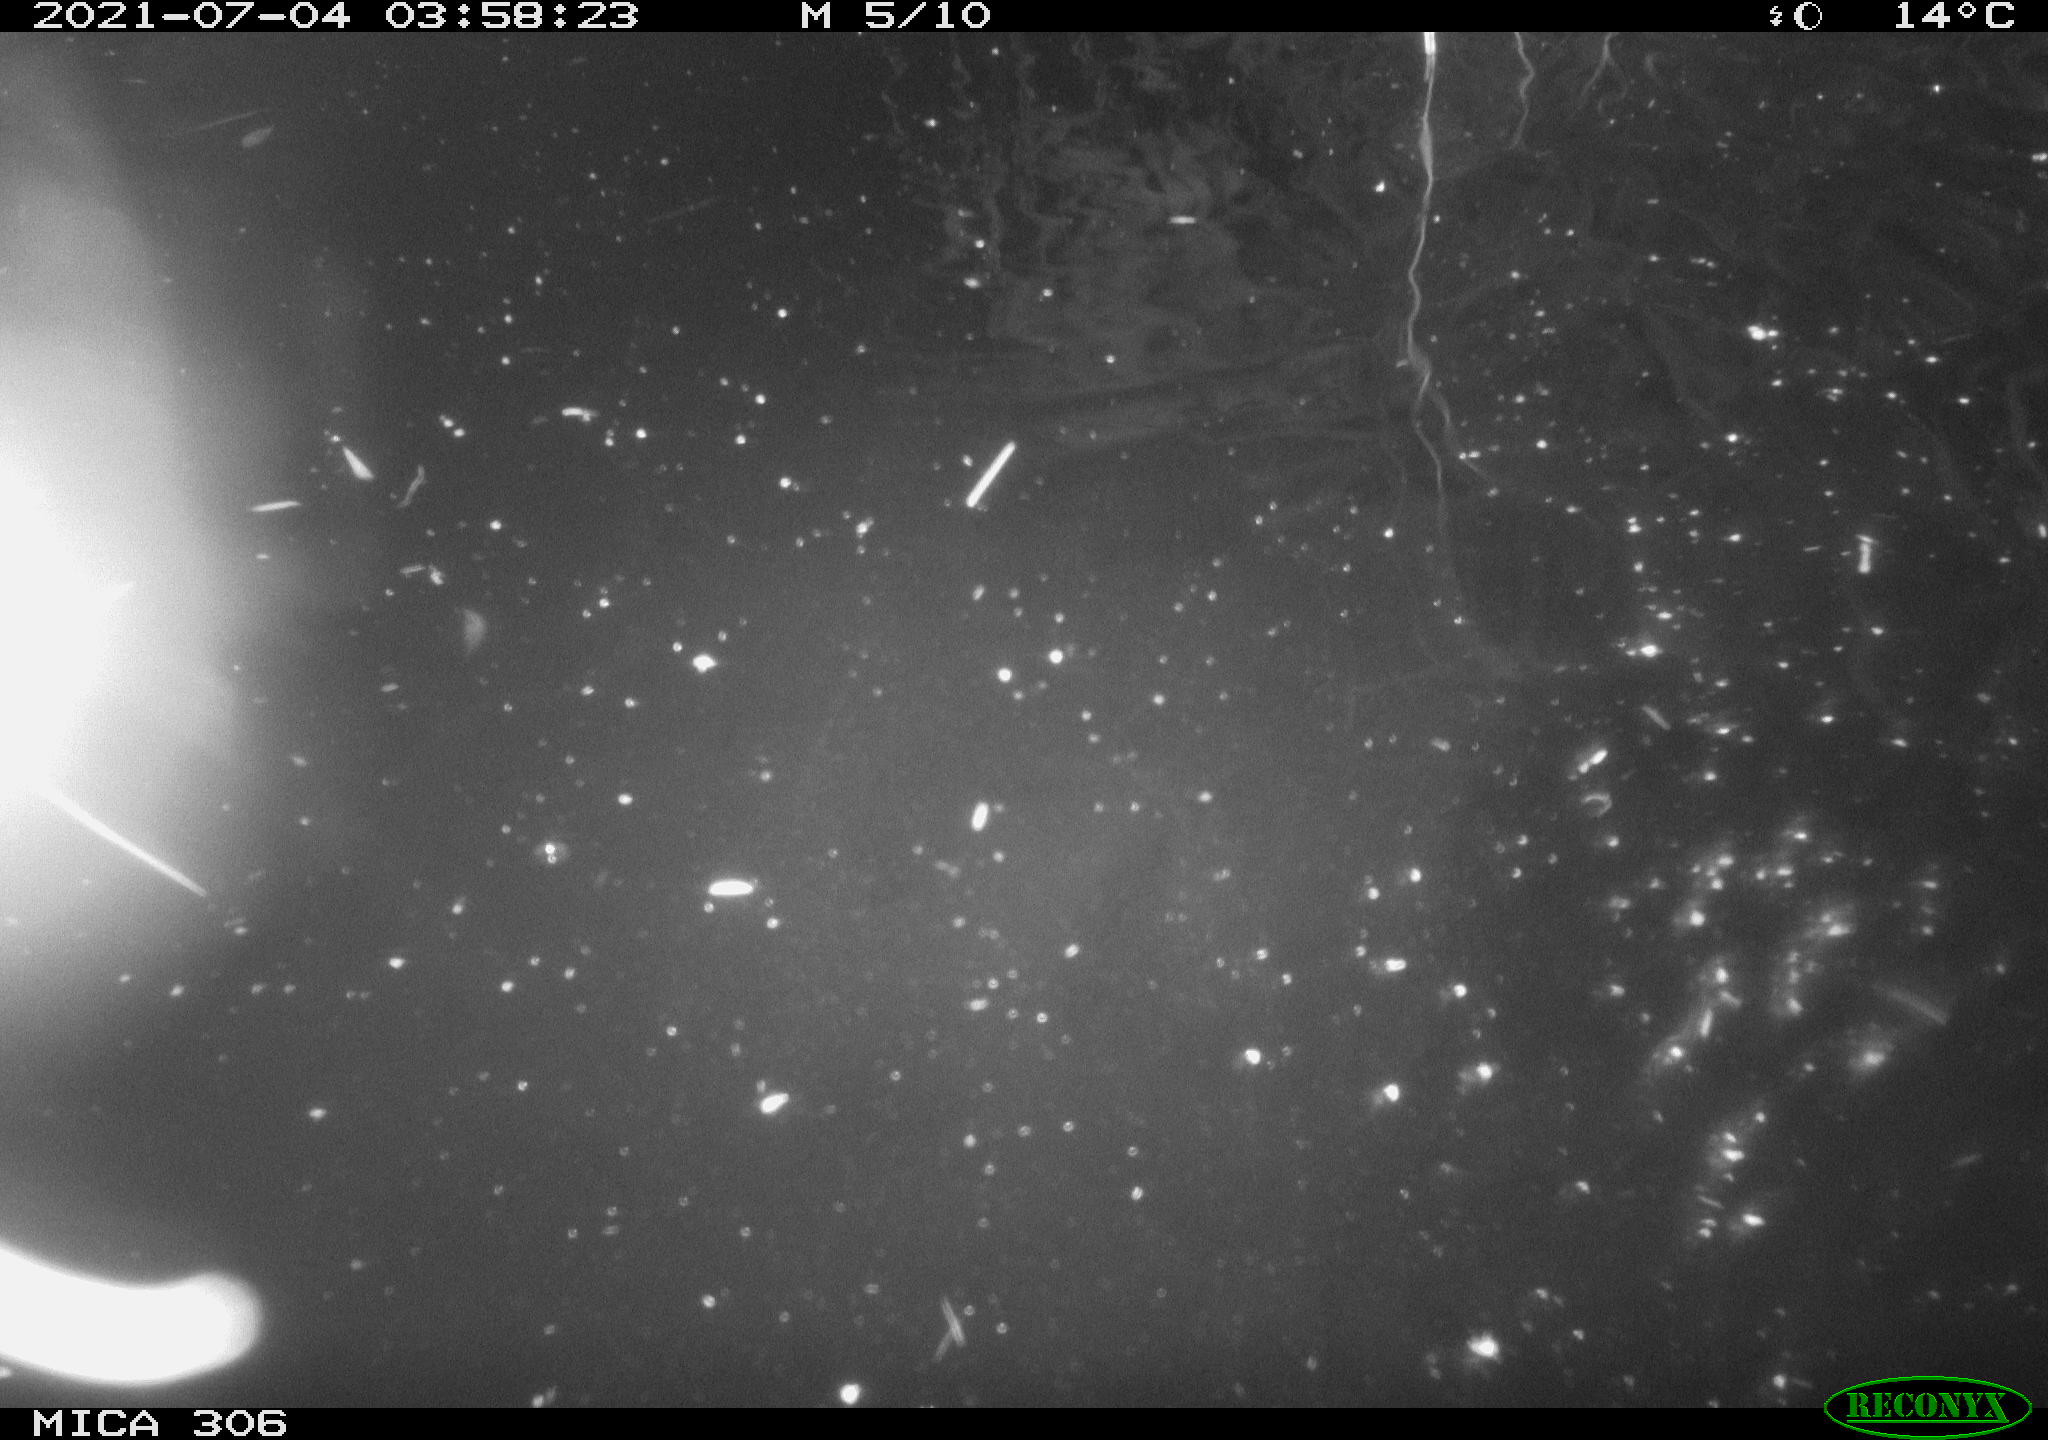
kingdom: Animalia
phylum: Chordata
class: Mammalia
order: Rodentia
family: Cricetidae
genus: Ondatra
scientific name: Ondatra zibethicus
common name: Muskrat
